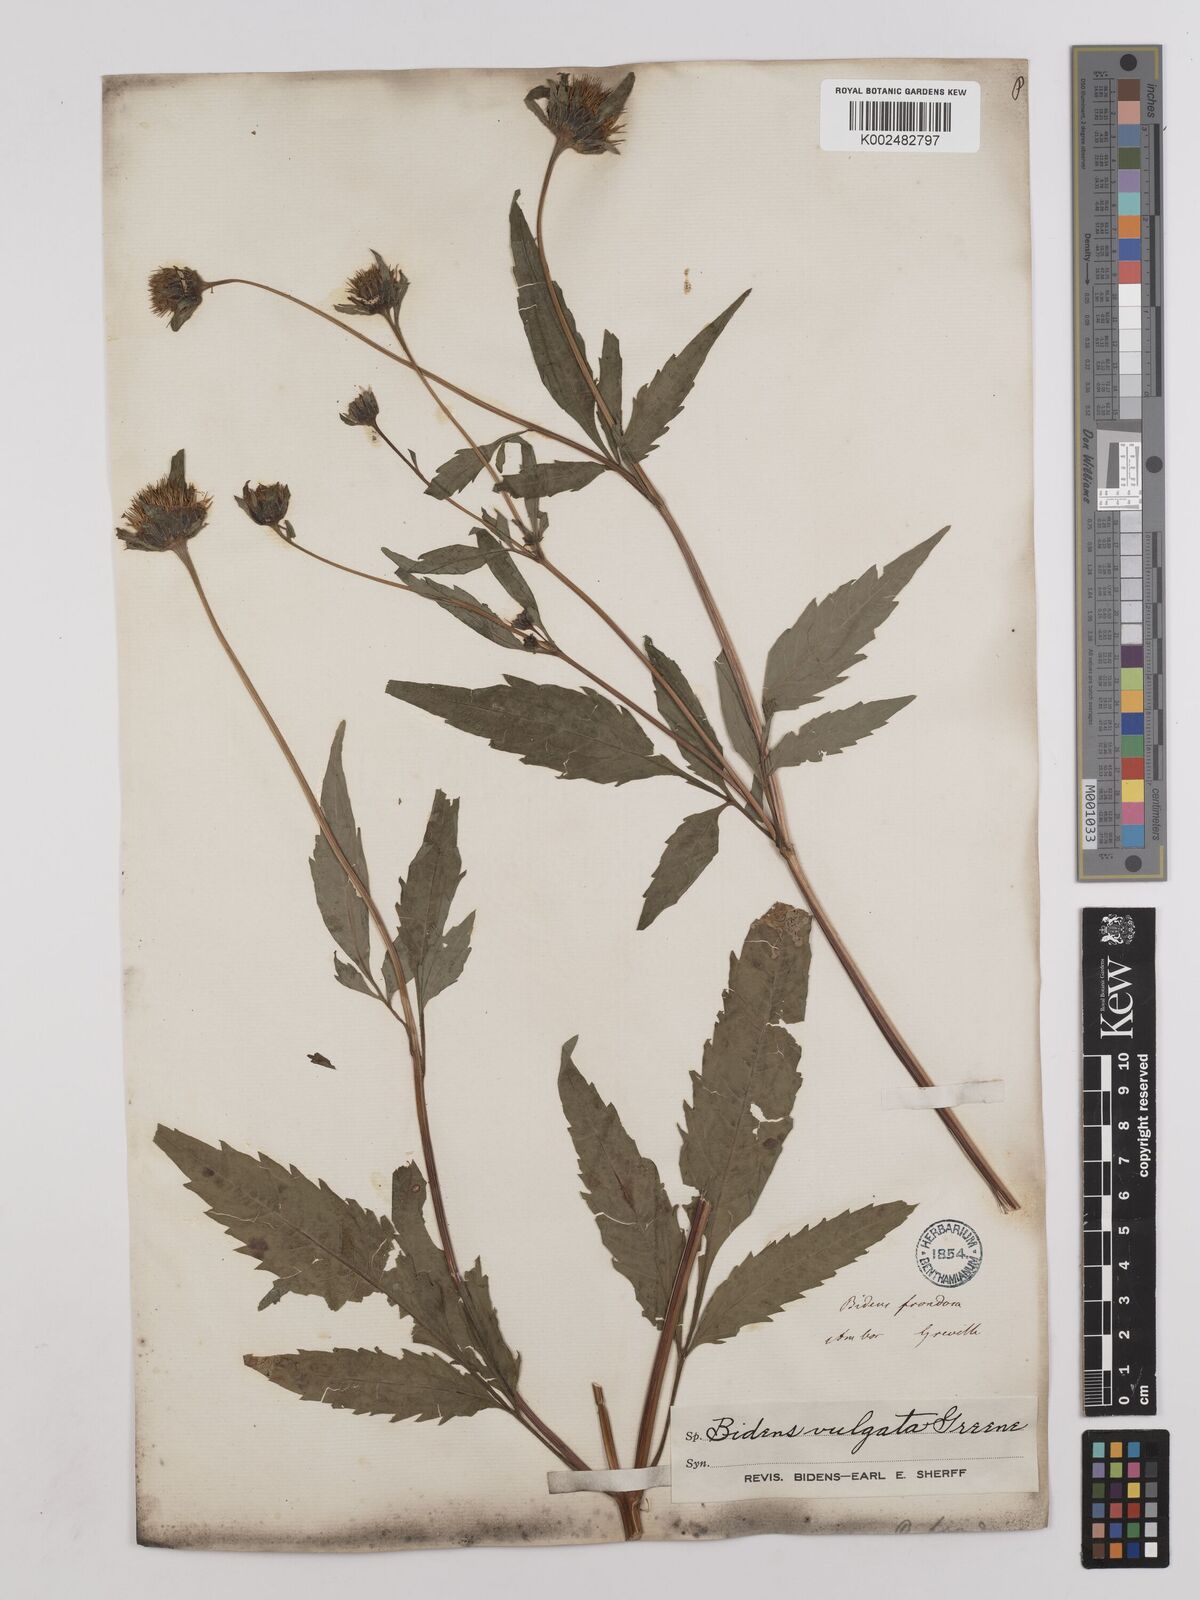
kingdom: Plantae
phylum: Tracheophyta
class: Magnoliopsida
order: Asterales
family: Asteraceae
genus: Bidens
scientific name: Bidens vulgata
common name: Tall beggarticks
